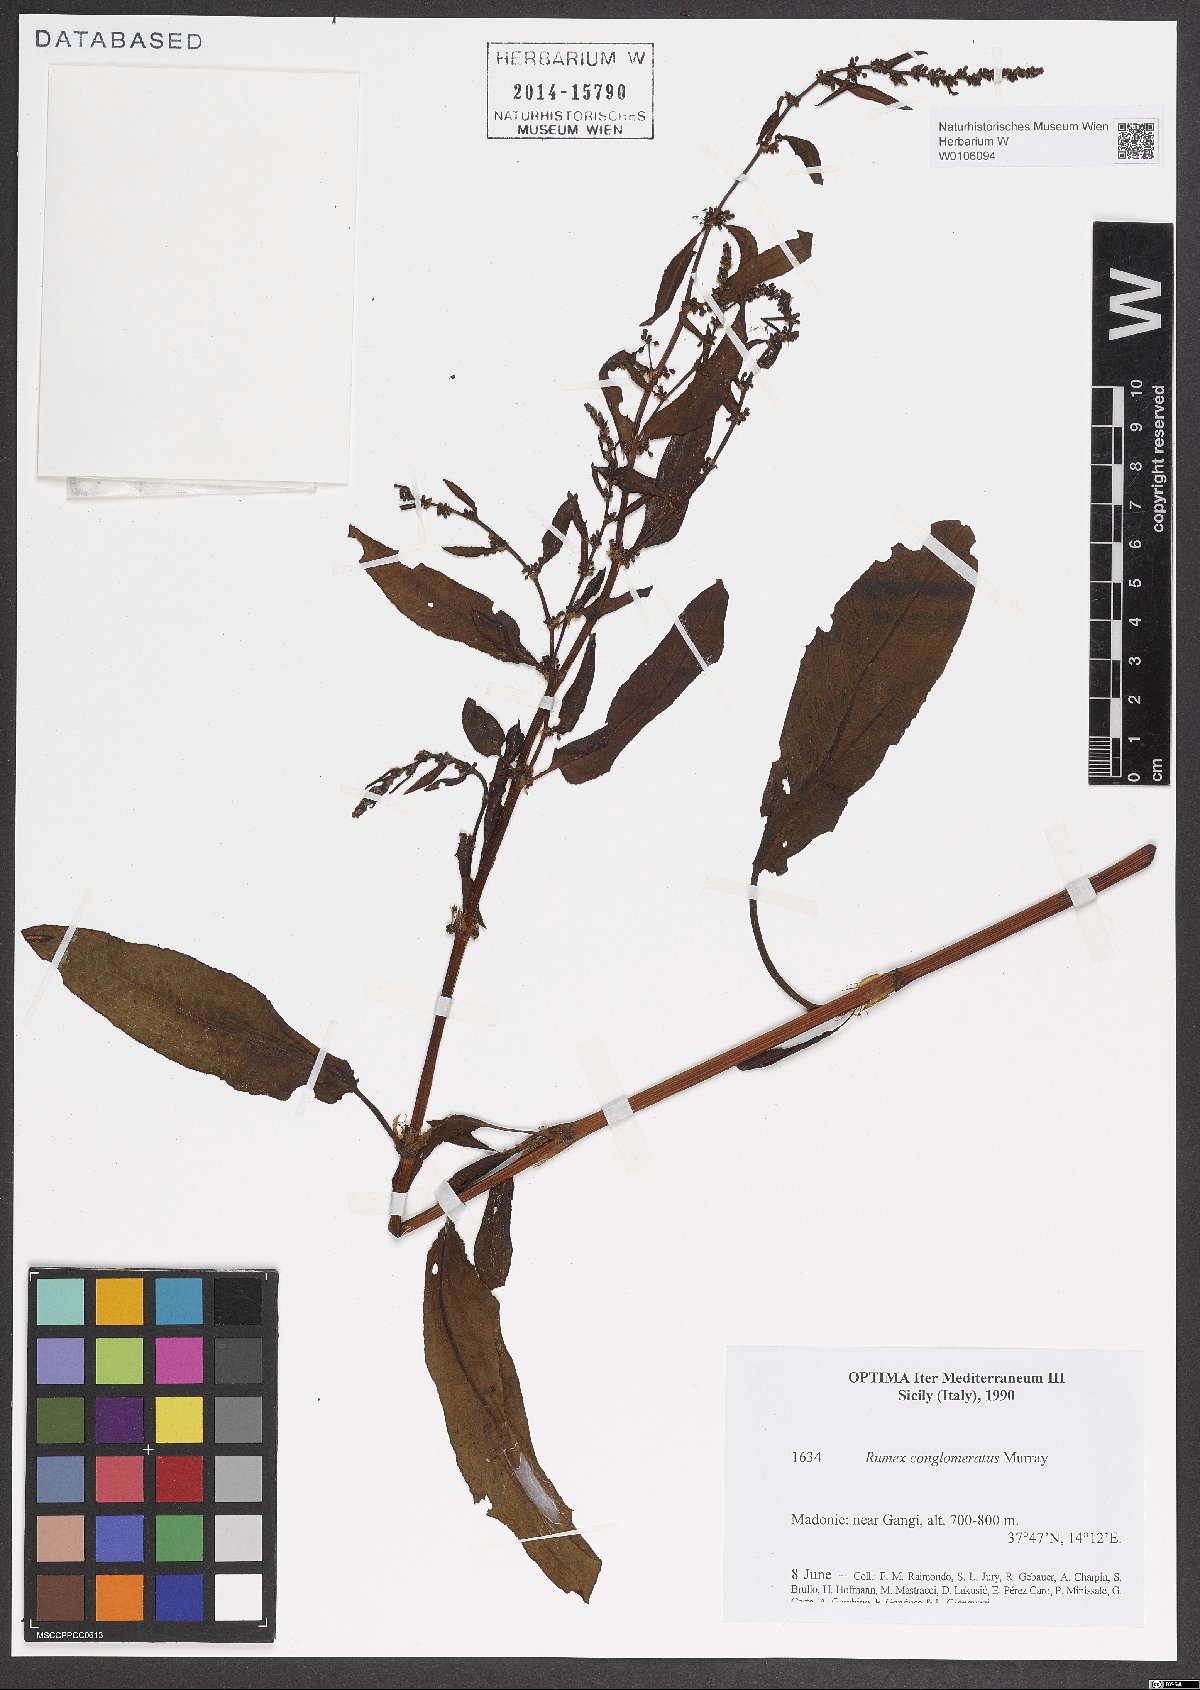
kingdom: Plantae
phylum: Tracheophyta
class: Magnoliopsida
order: Caryophyllales
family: Polygonaceae
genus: Rumex
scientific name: Rumex conglomeratus
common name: Clustered dock
